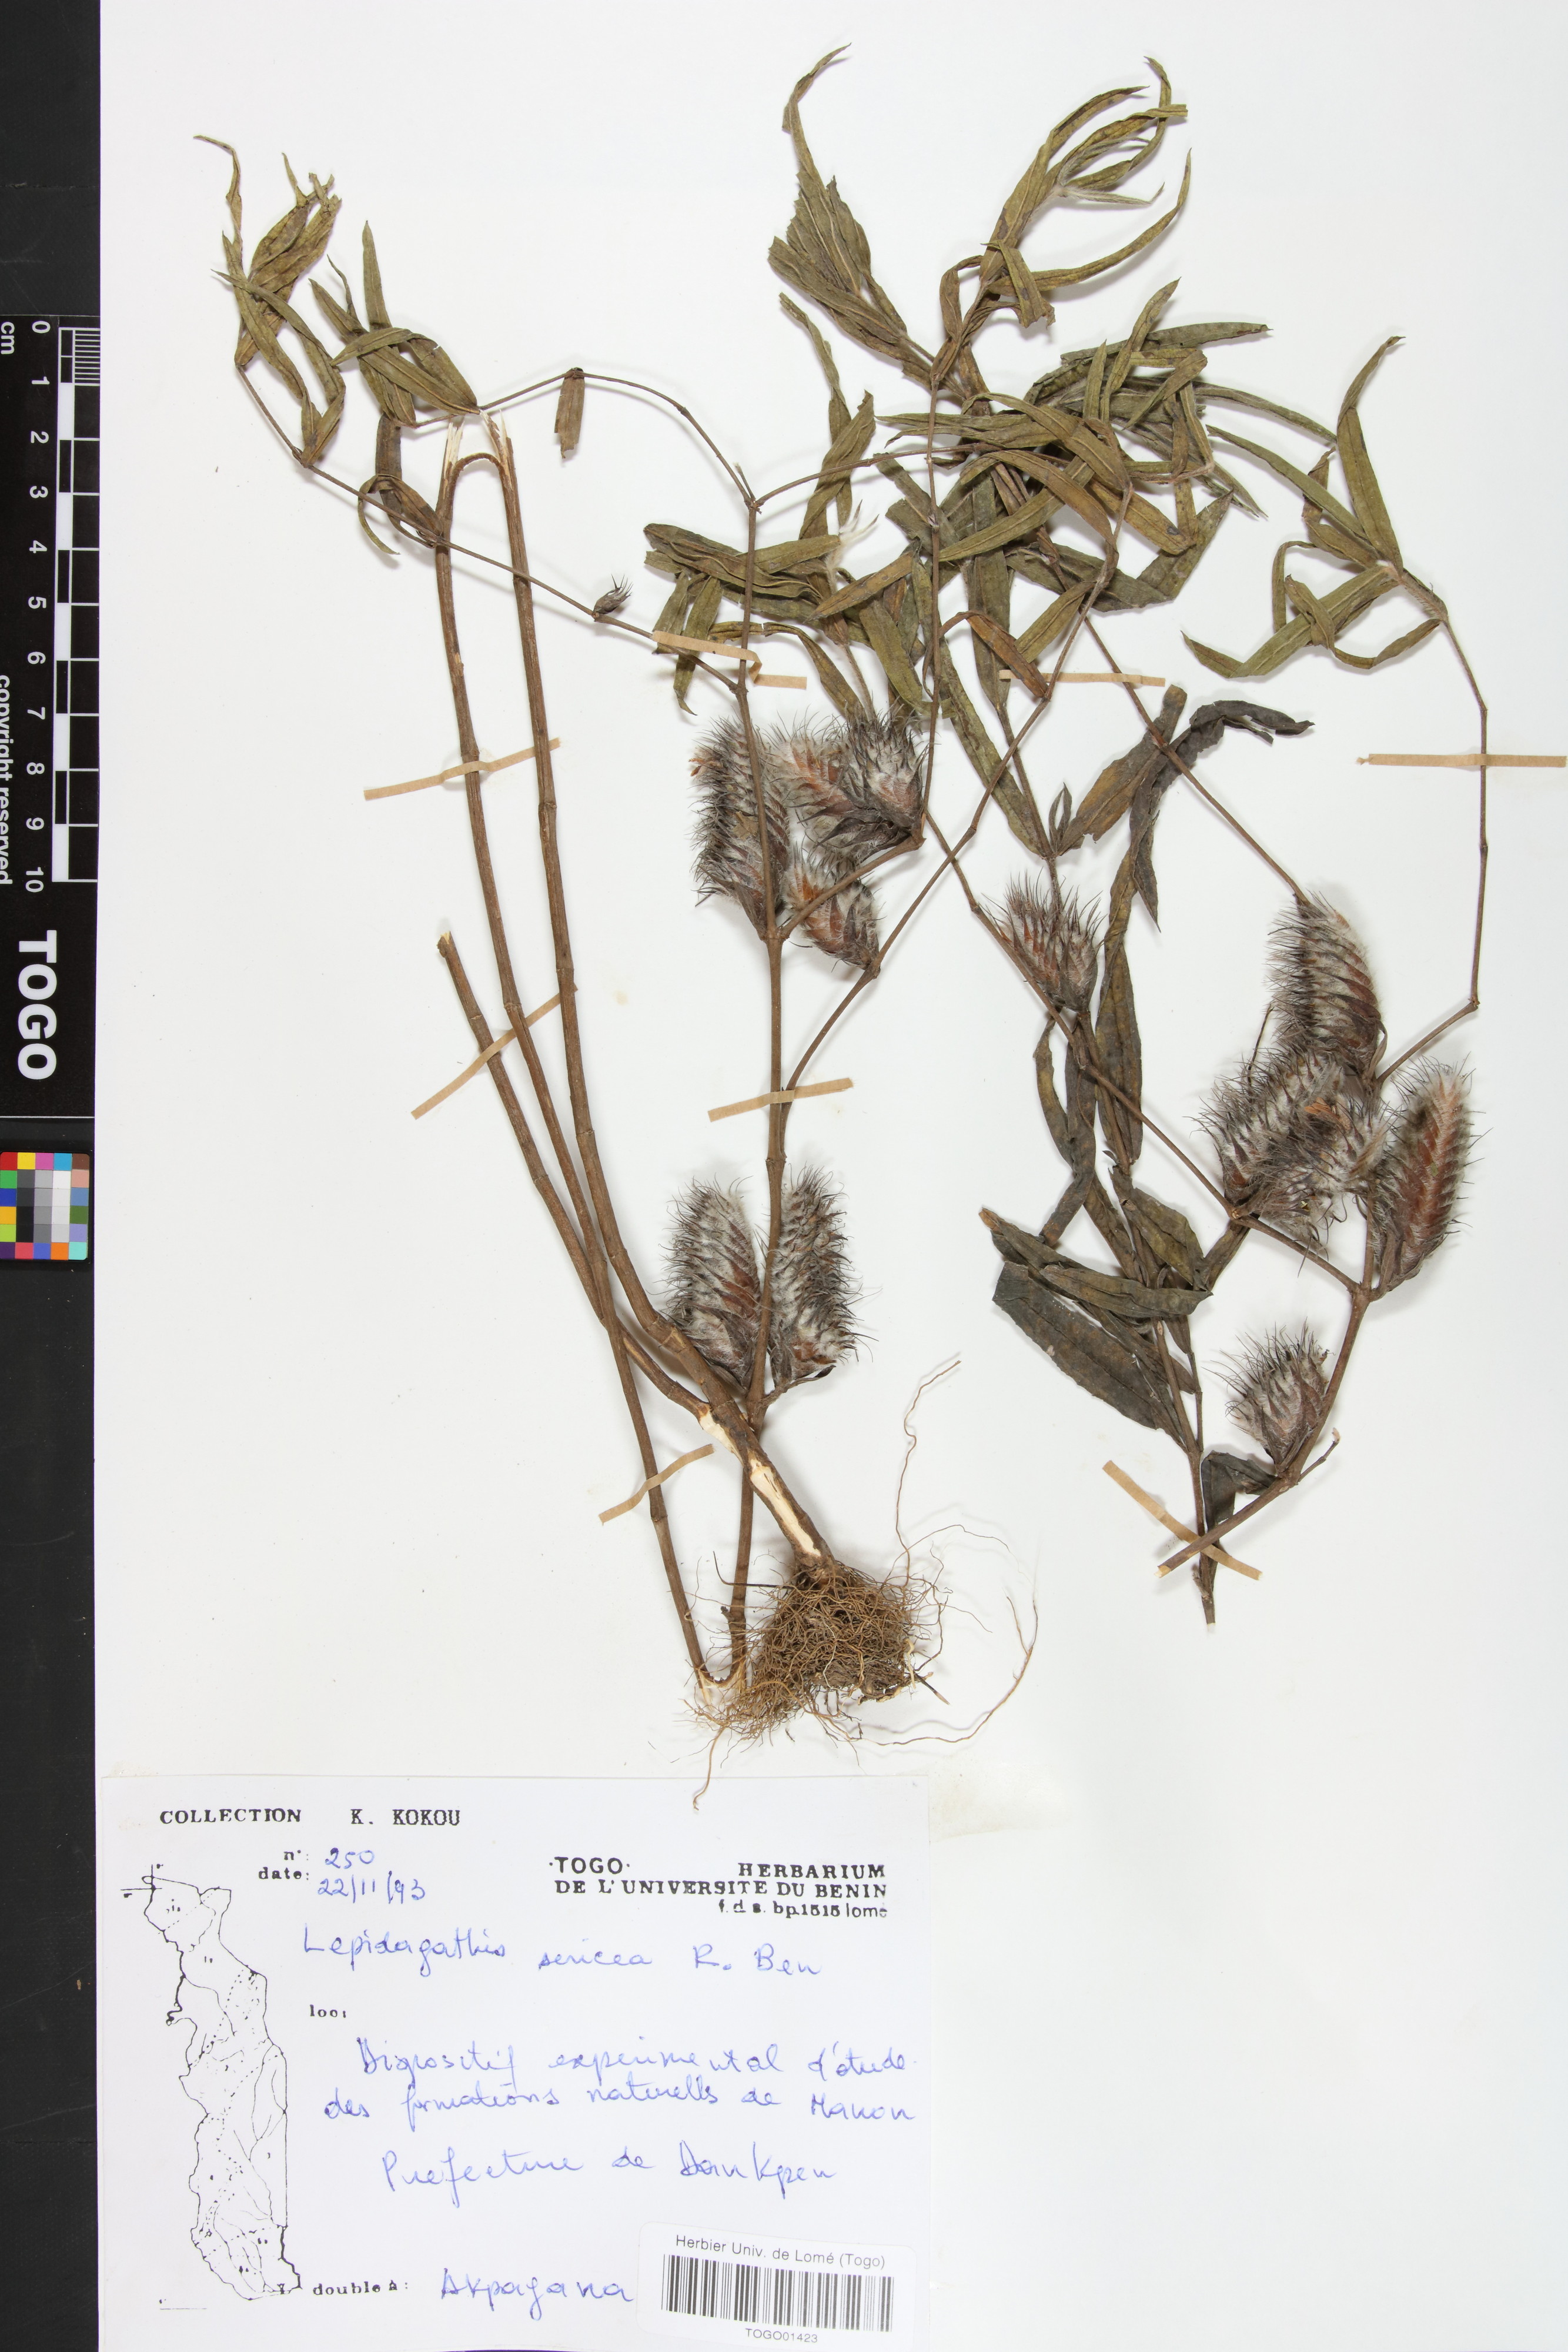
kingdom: Plantae
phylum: Tracheophyta
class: Magnoliopsida
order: Lamiales
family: Acanthaceae
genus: Lepidagathis
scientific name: Lepidagathis sericea
